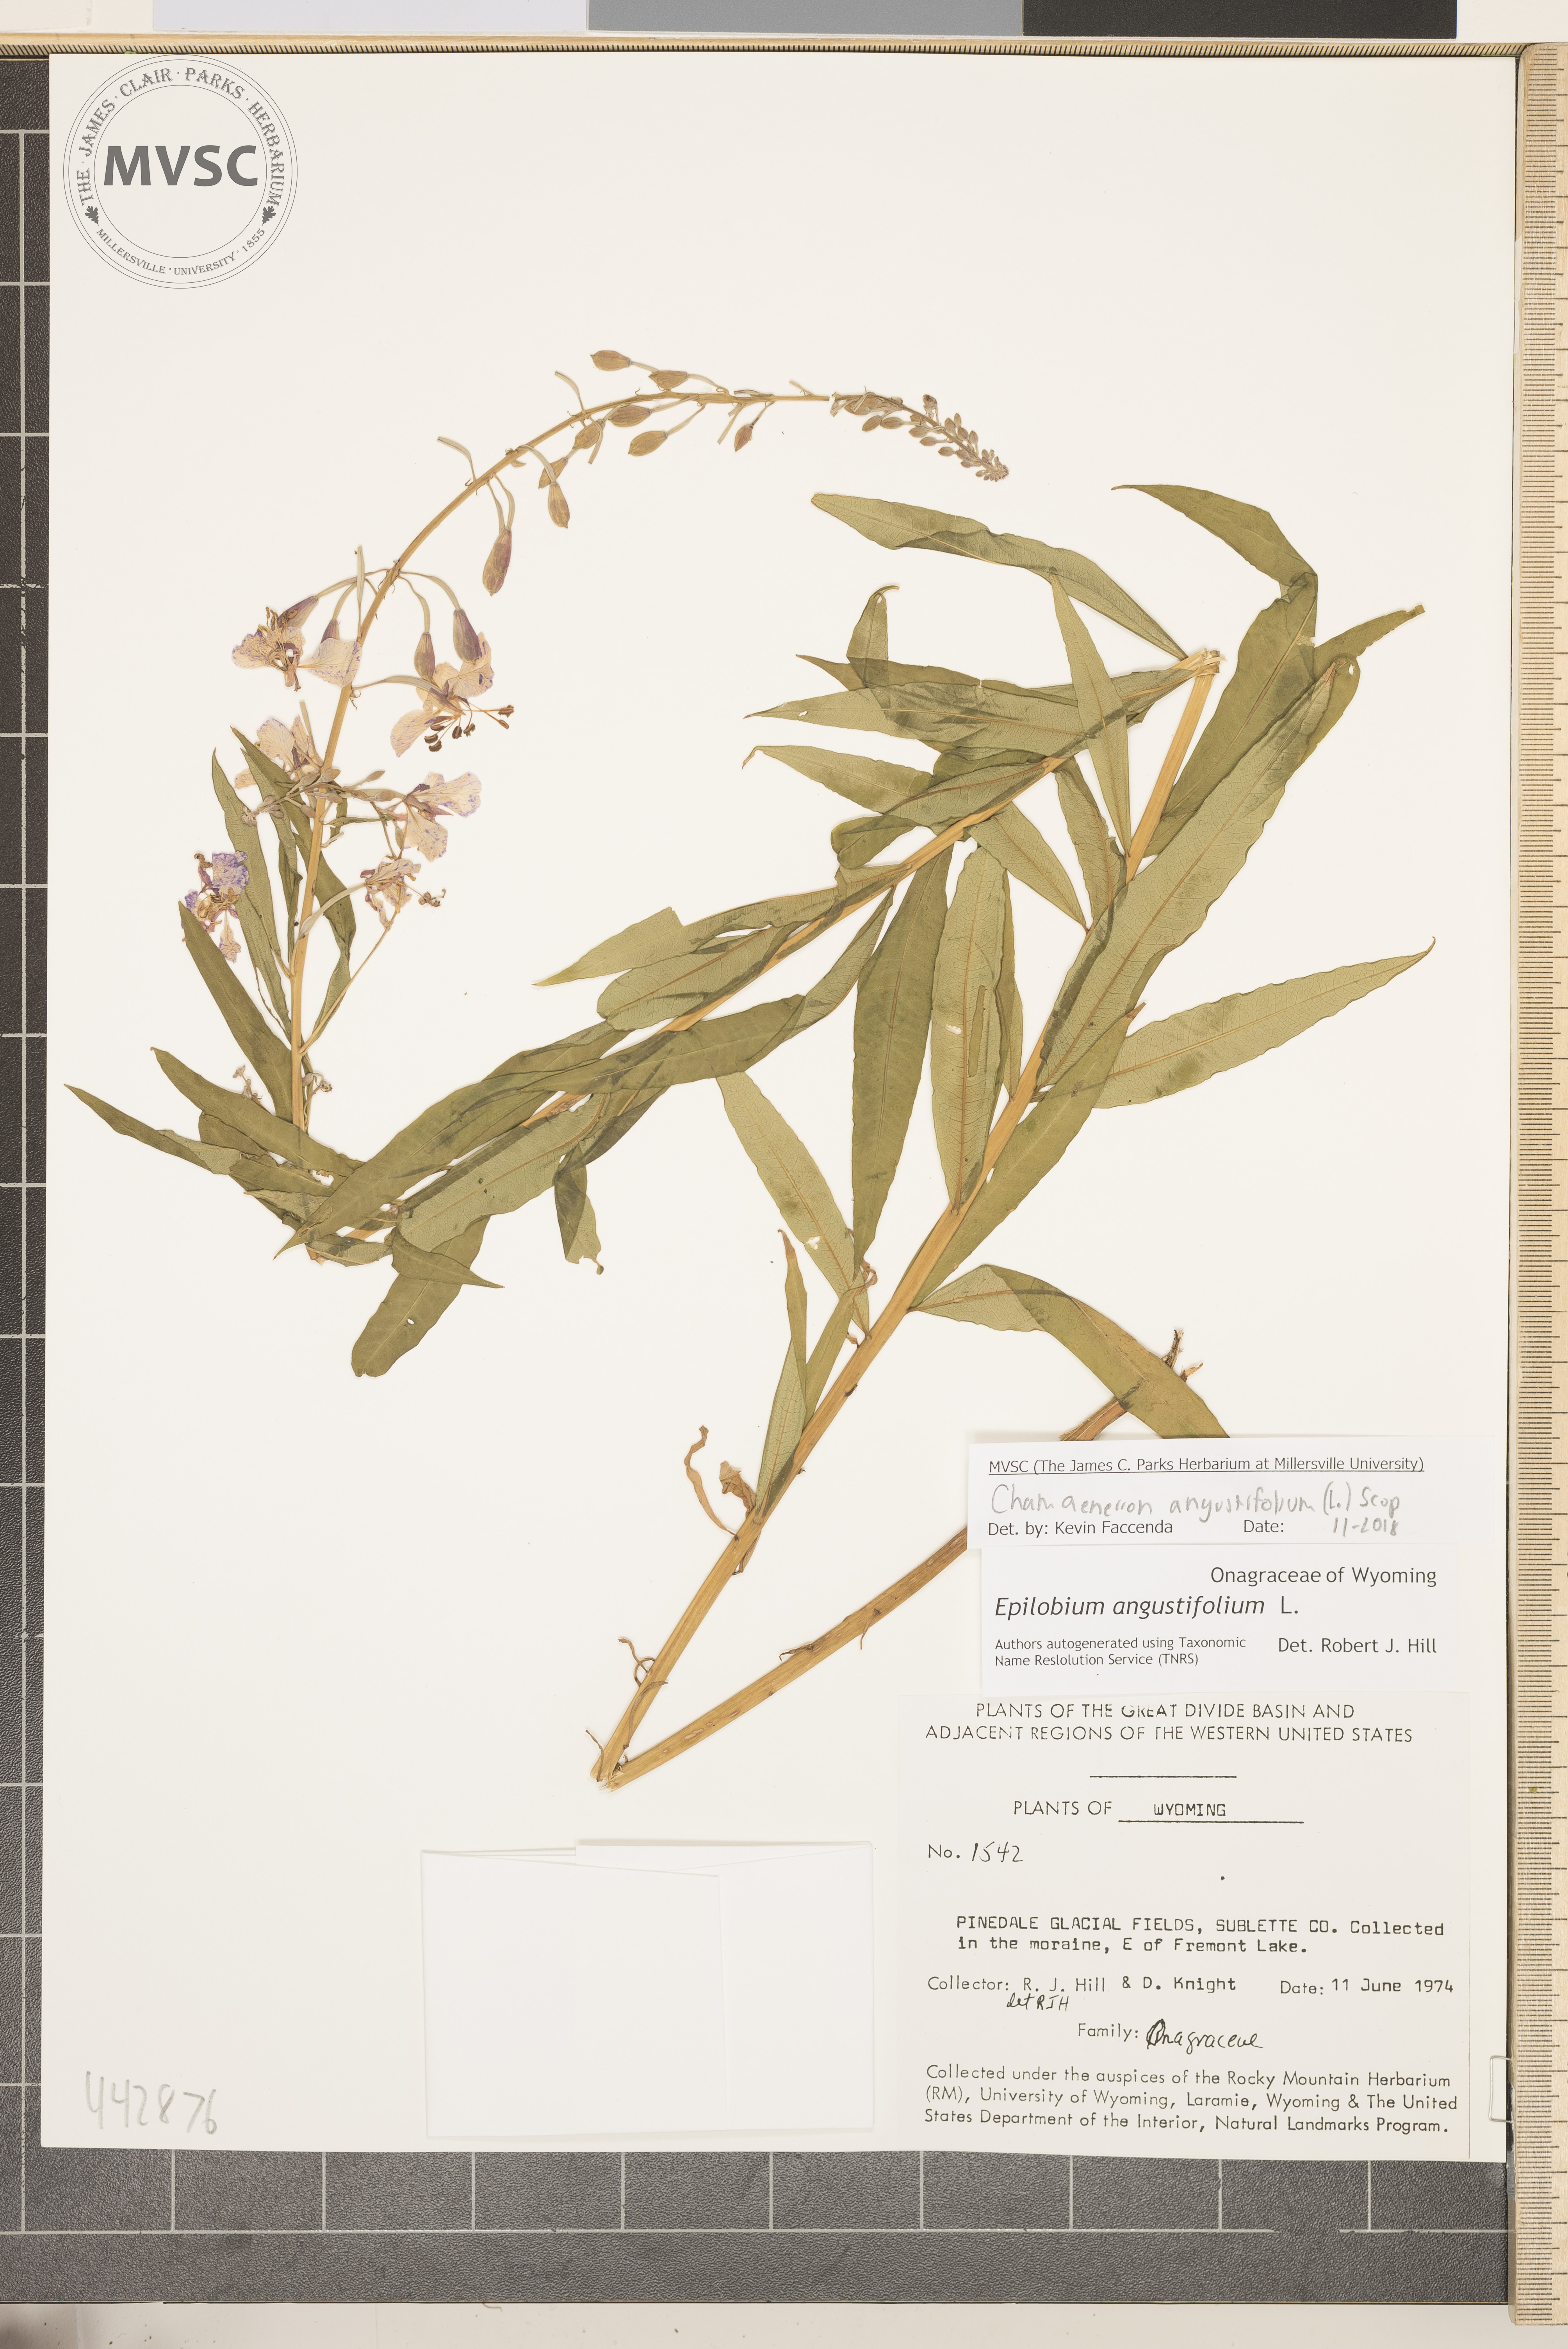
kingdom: Plantae
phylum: Tracheophyta
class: Magnoliopsida
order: Myrtales
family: Onagraceae
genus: Chamaenerion
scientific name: Chamaenerion angustifolium
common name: Fireweed
